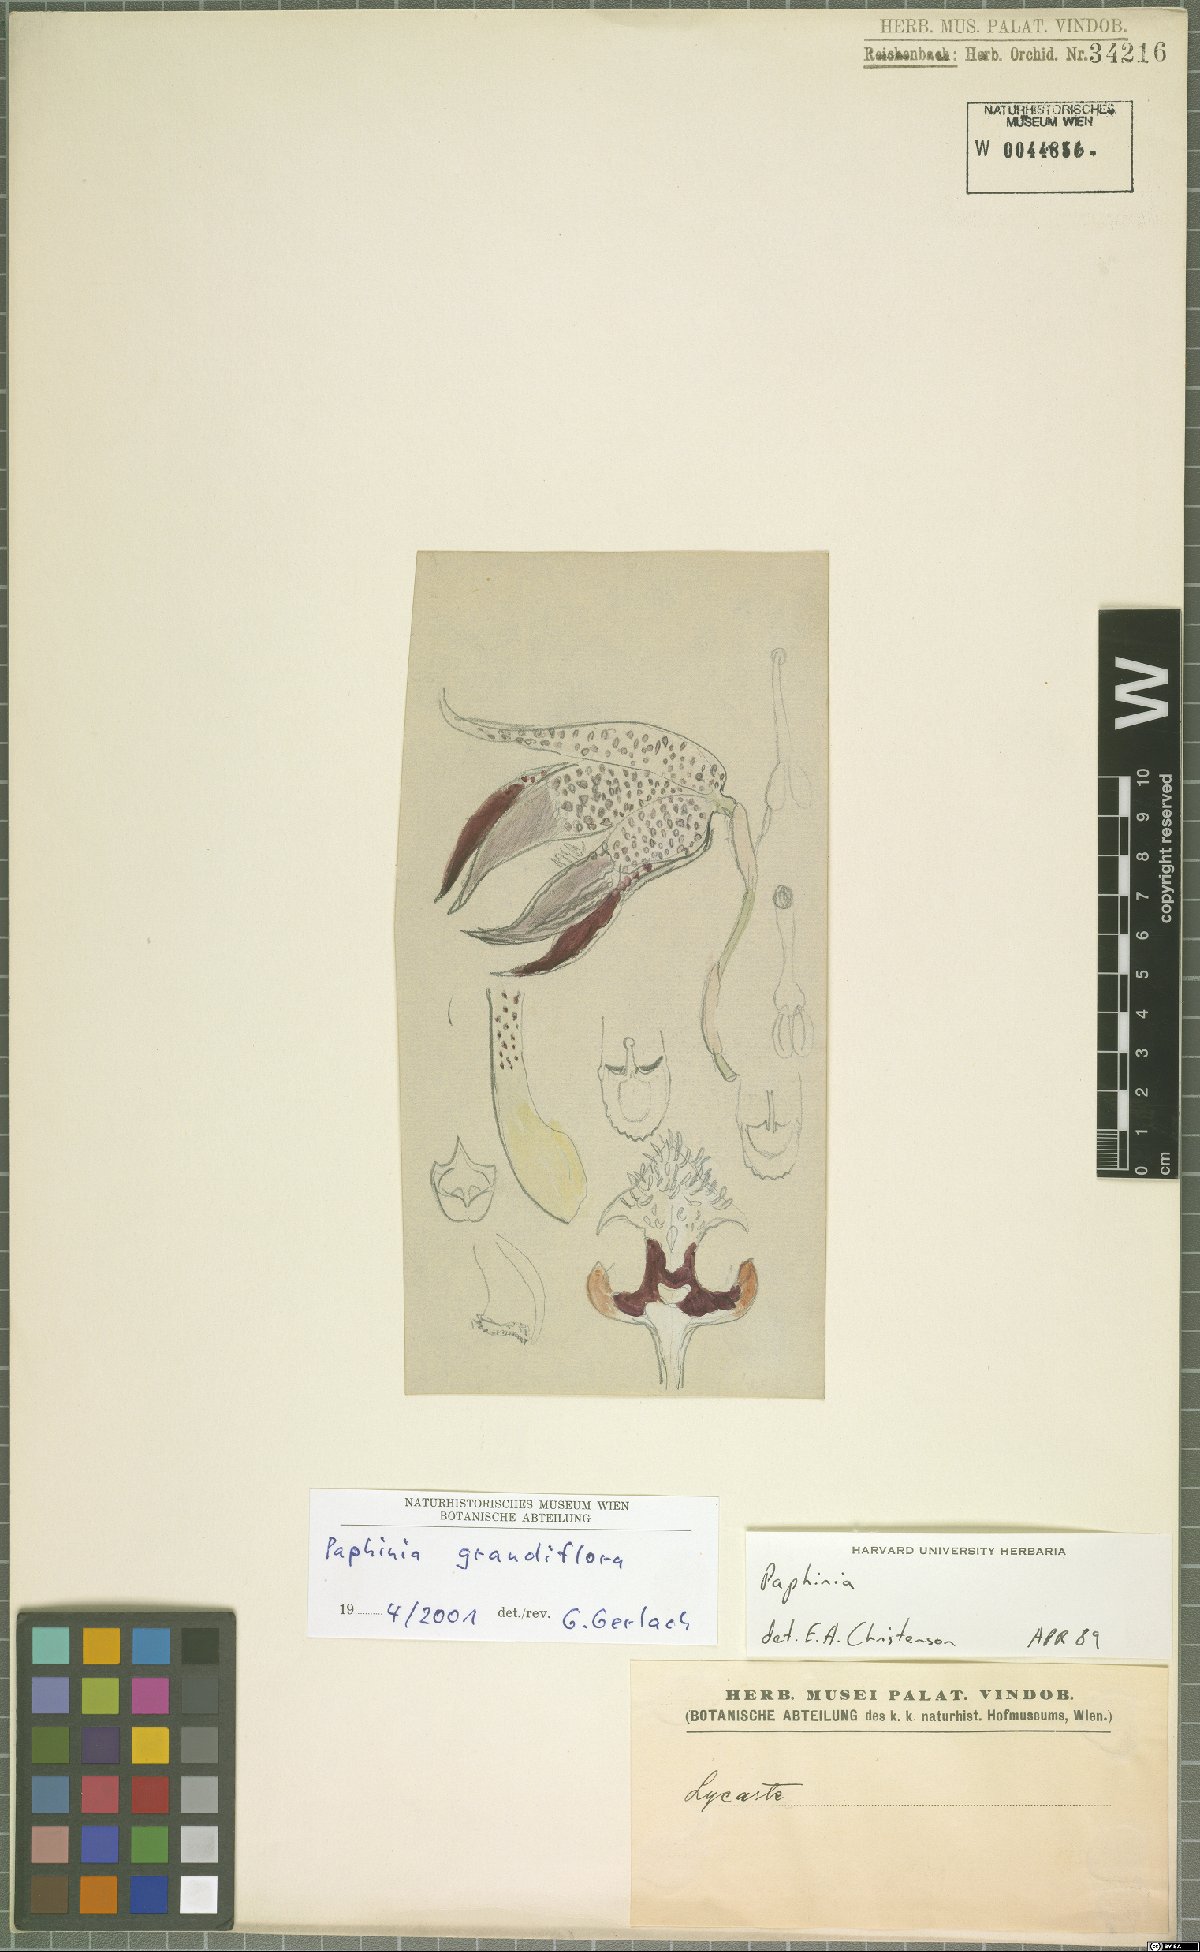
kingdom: Plantae
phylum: Tracheophyta
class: Liliopsida
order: Asparagales
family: Orchidaceae
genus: Paphinia
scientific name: Paphinia grandiflora
